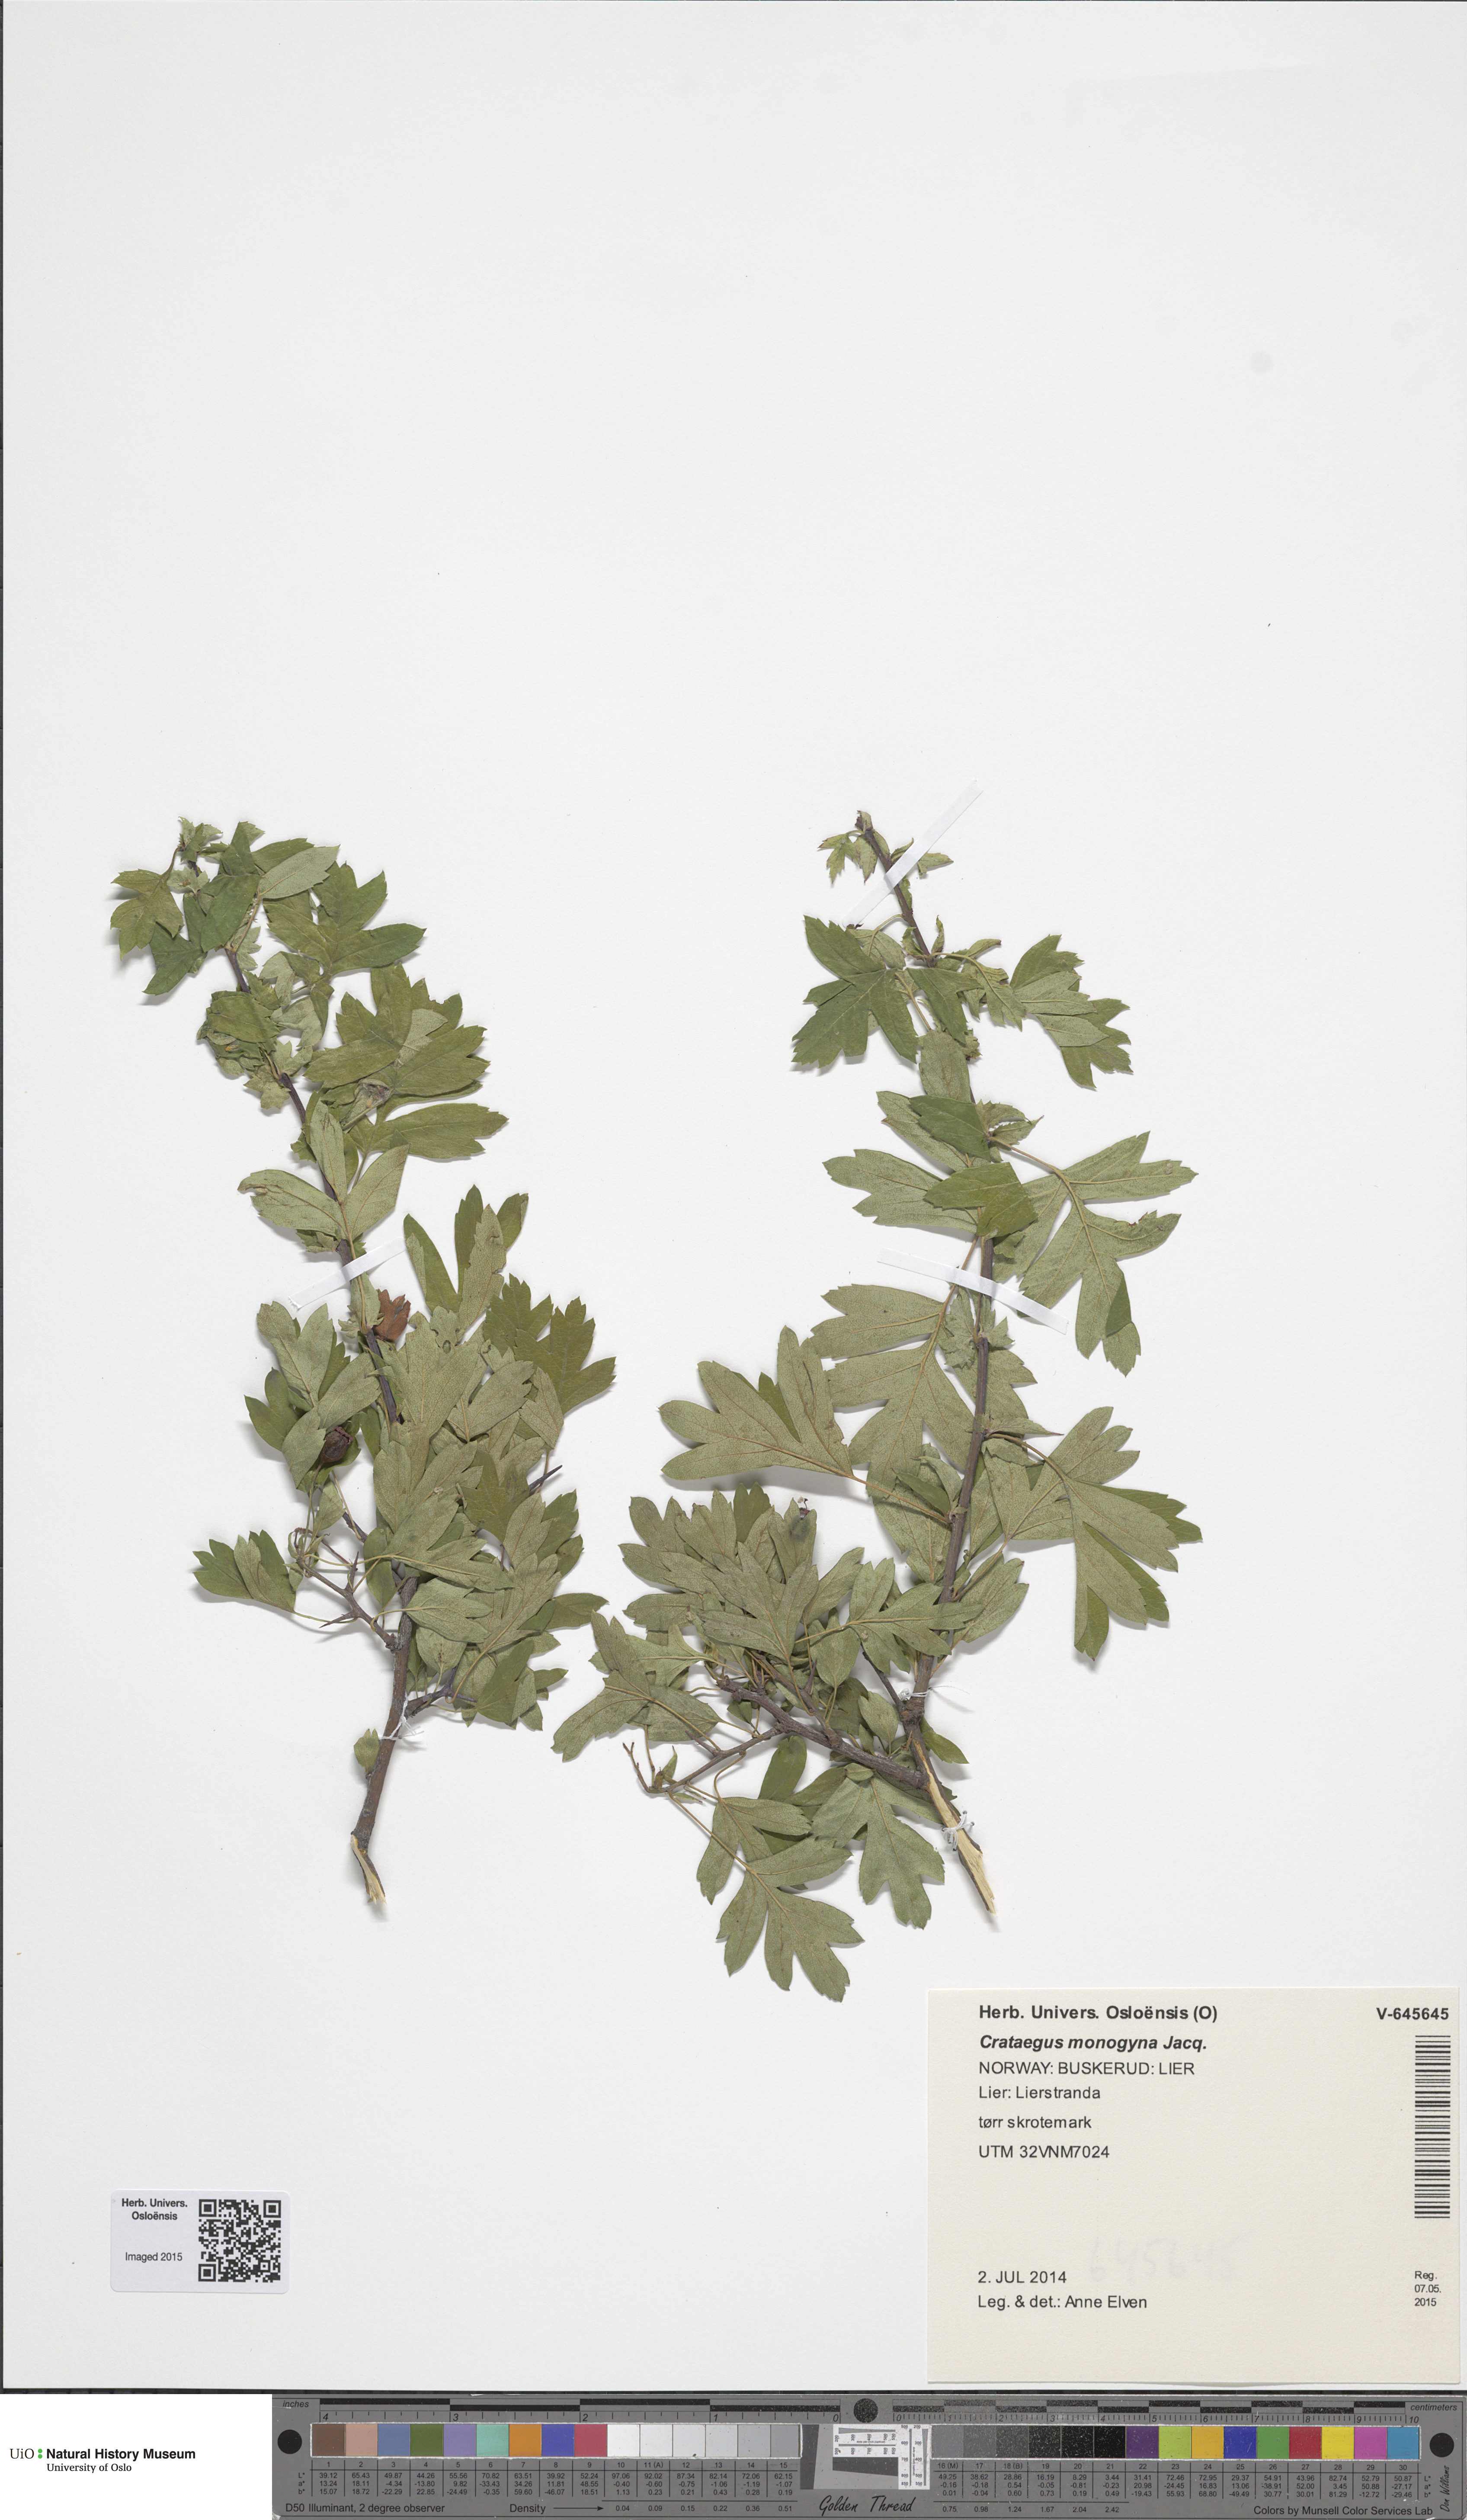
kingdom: Plantae
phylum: Tracheophyta
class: Magnoliopsida
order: Rosales
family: Rosaceae
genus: Crataegus
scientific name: Crataegus monogyna
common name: Hawthorn
